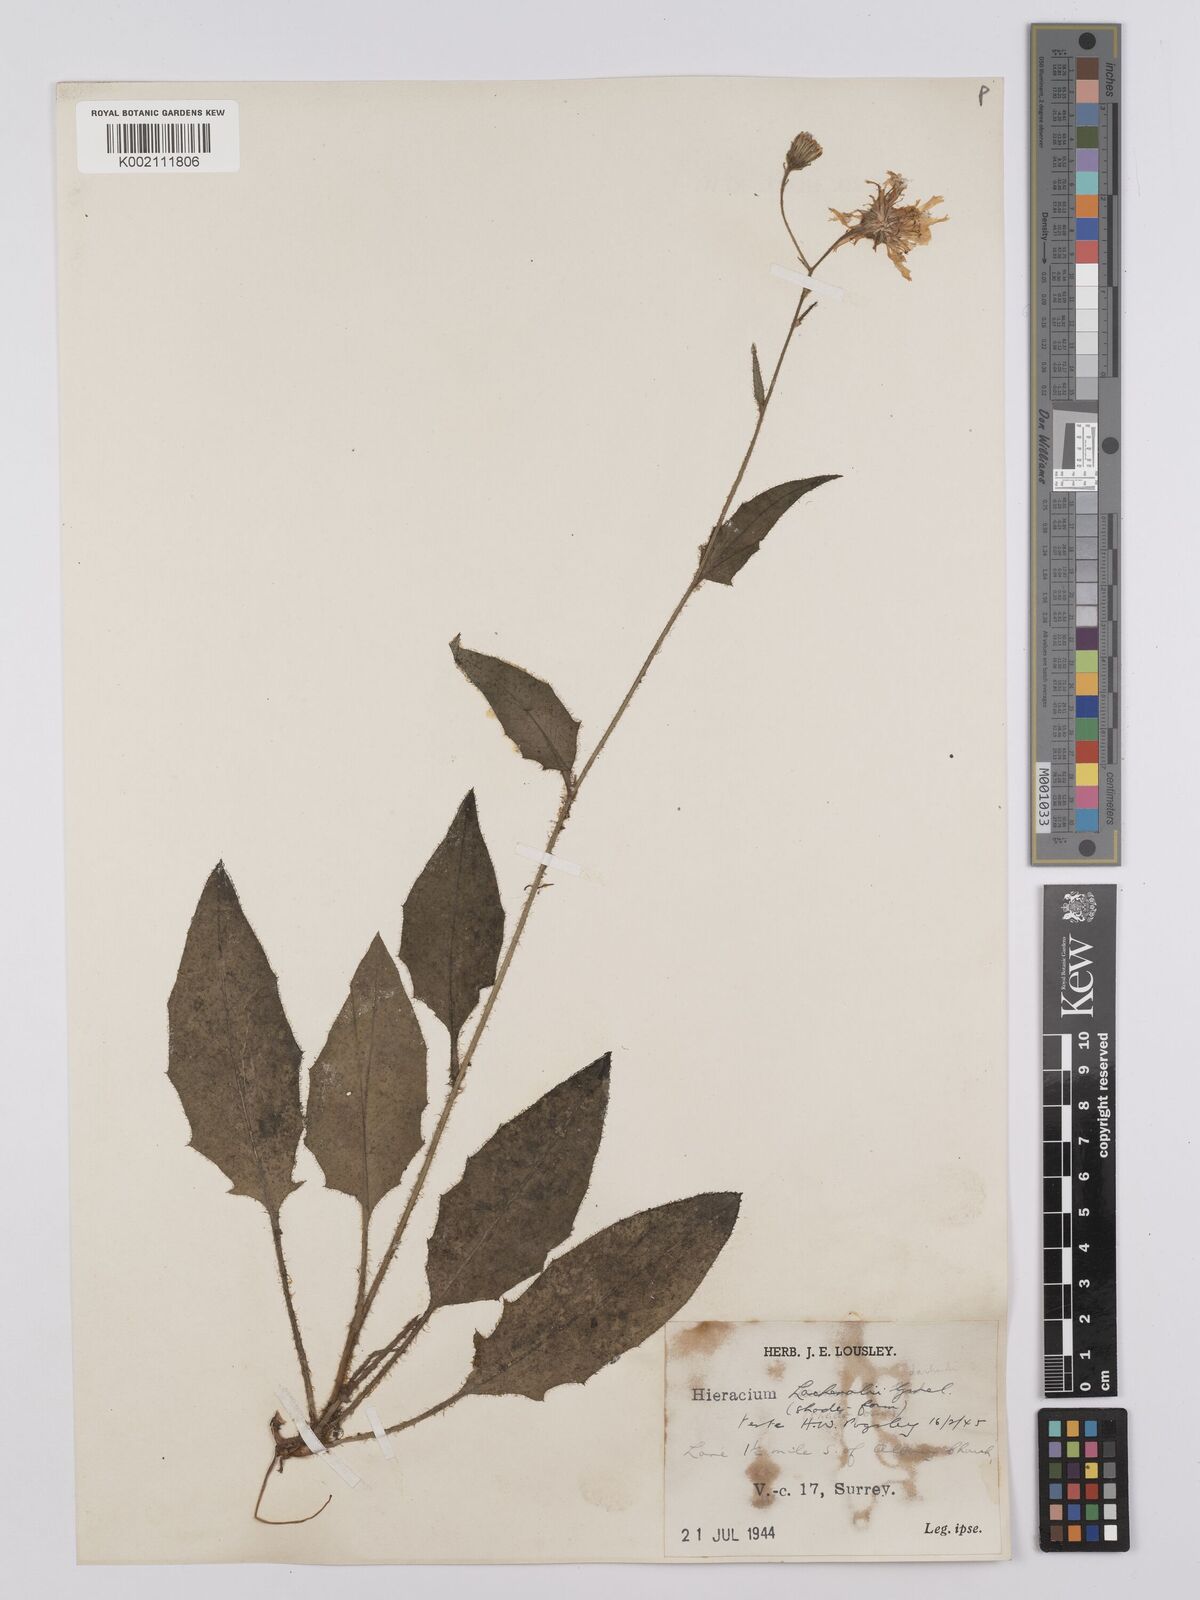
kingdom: Plantae
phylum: Tracheophyta
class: Magnoliopsida
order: Asterales
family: Asteraceae
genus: Hieracium
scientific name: Hieracium lachenalii
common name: Common hawkweed
